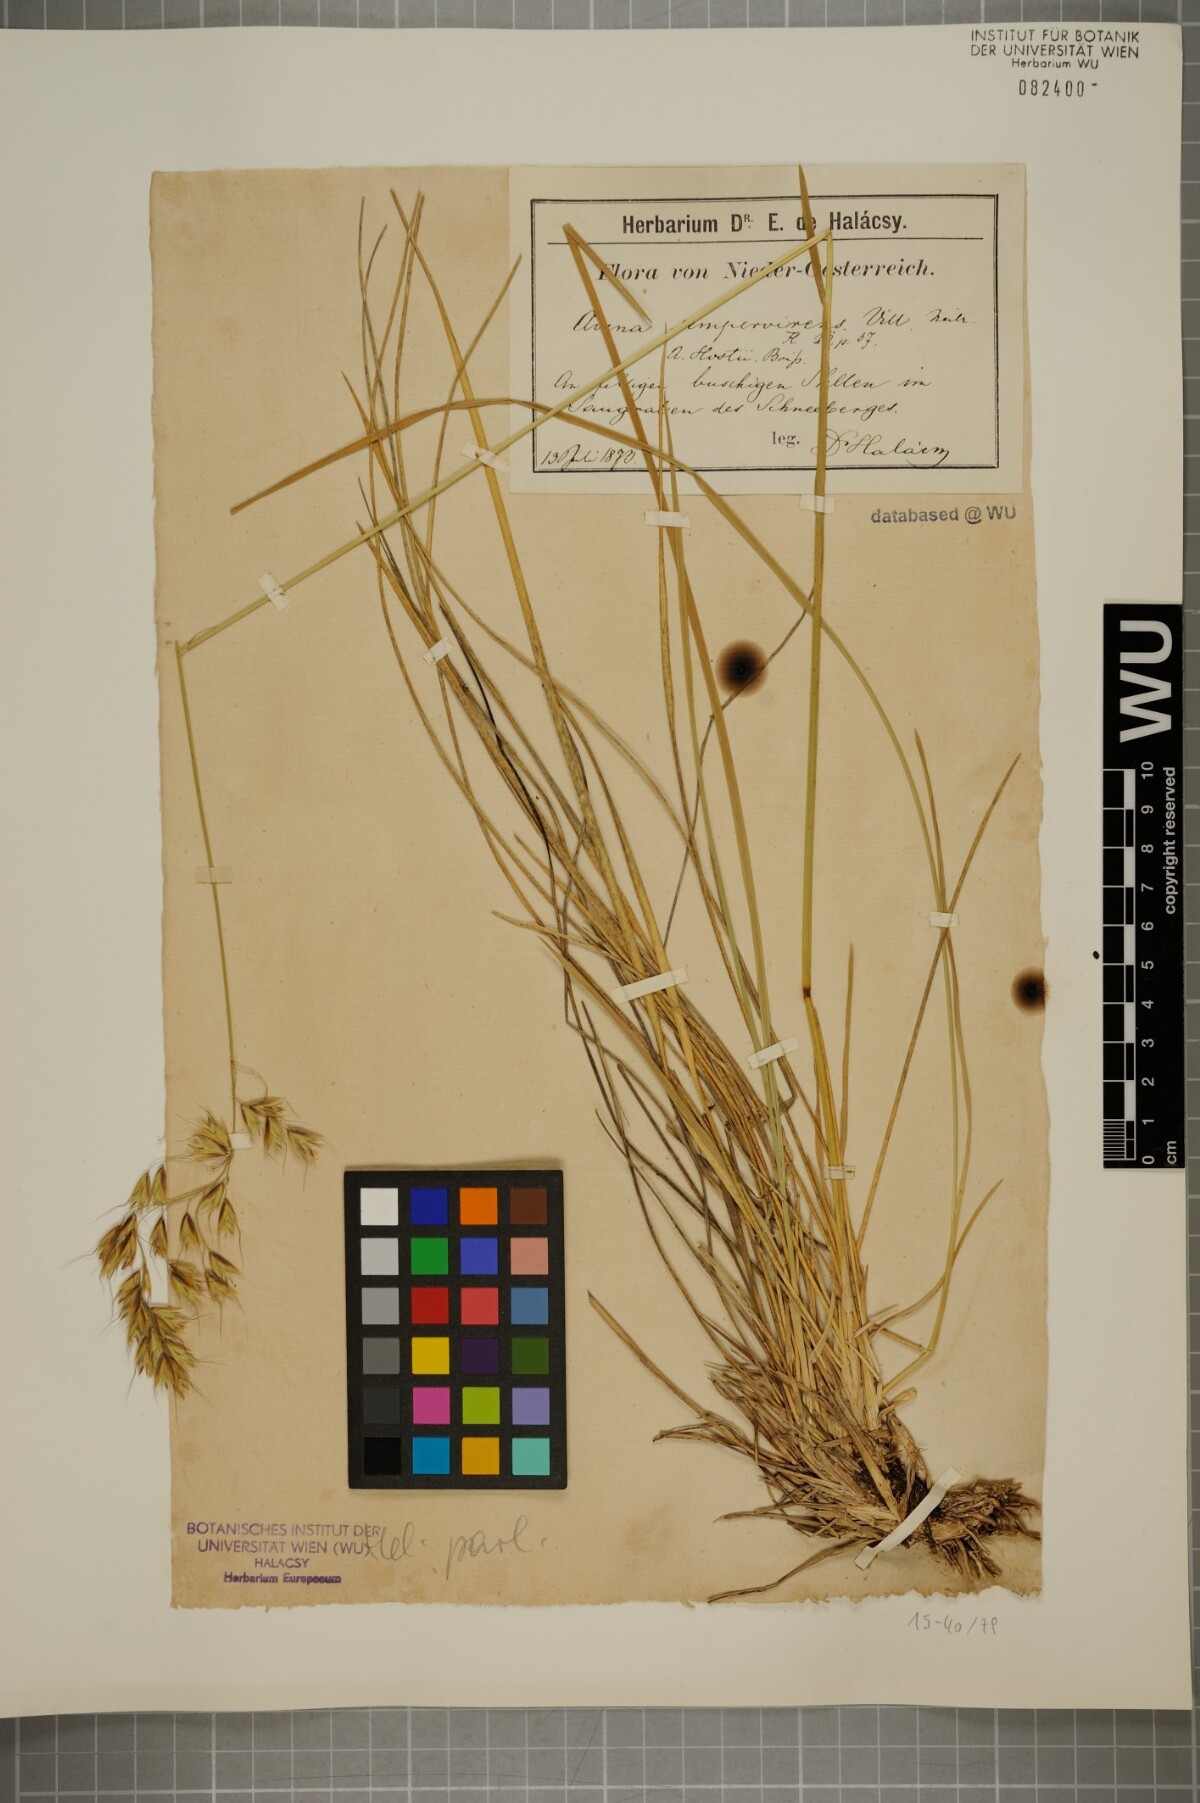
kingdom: Plantae
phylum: Tracheophyta
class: Liliopsida
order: Poales
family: Poaceae
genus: Helictotrichon
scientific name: Helictotrichon parlatorei
